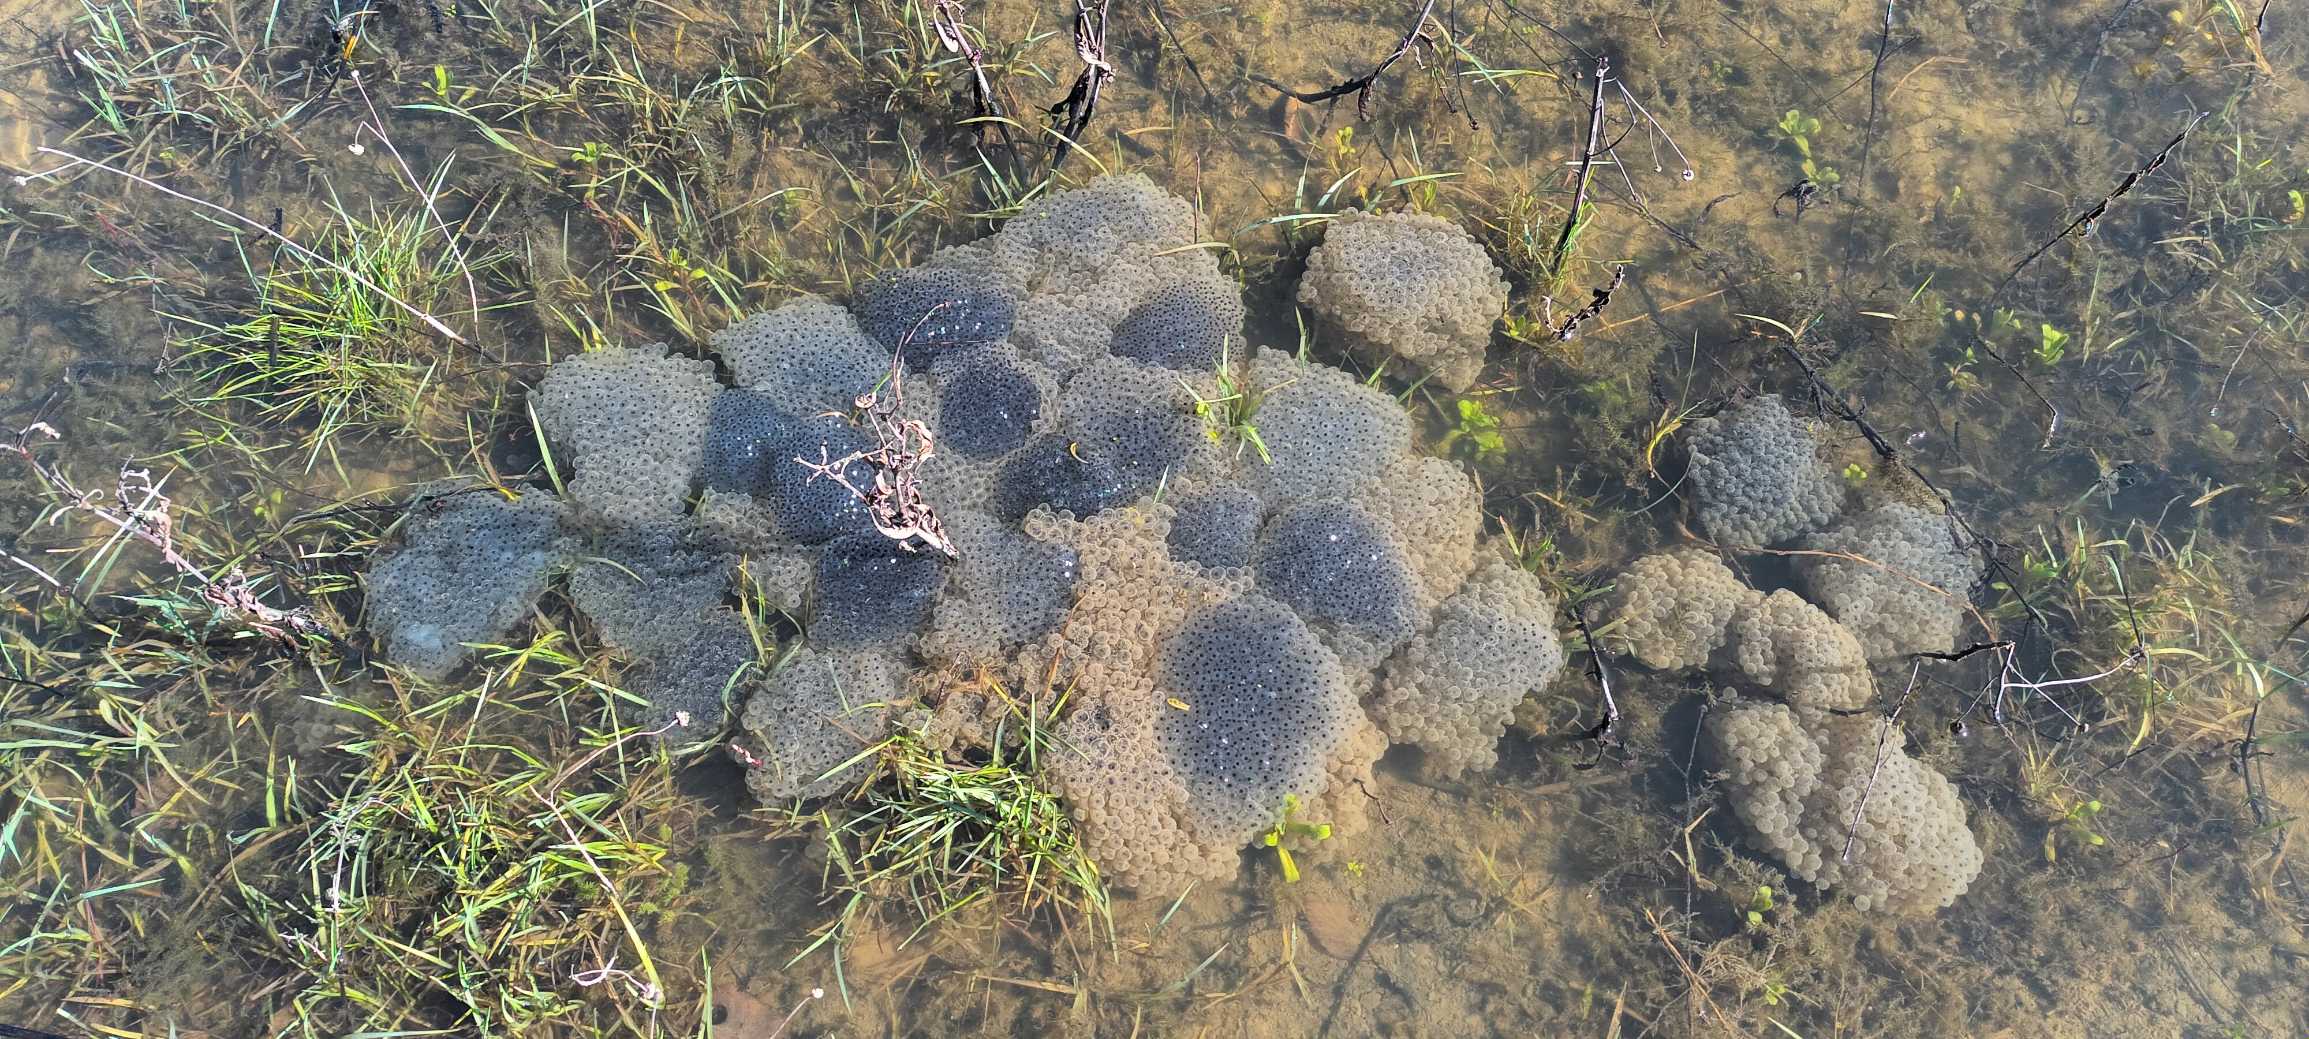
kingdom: Animalia
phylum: Chordata
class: Amphibia
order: Anura
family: Ranidae
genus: Rana
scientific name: Rana temporaria
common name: Butsnudet frø
